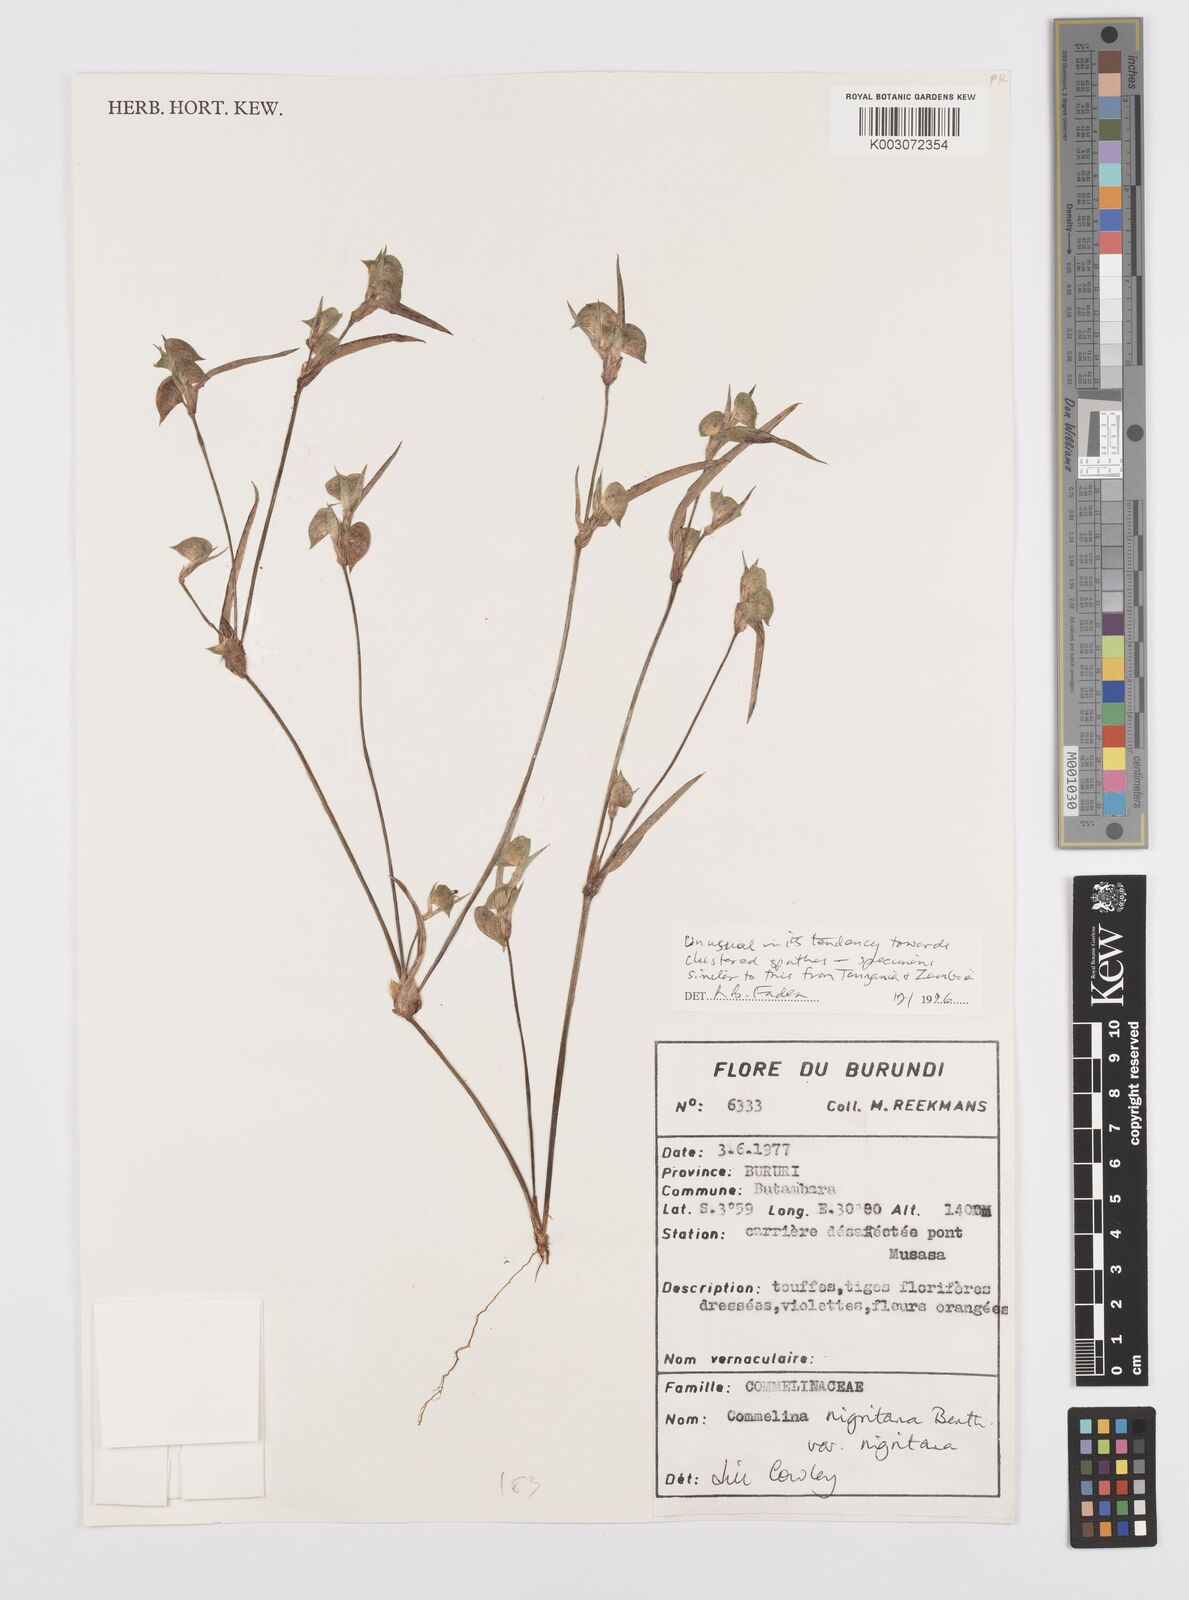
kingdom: Plantae
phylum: Tracheophyta
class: Liliopsida
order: Commelinales
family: Commelinaceae
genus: Commelina
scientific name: Commelina
